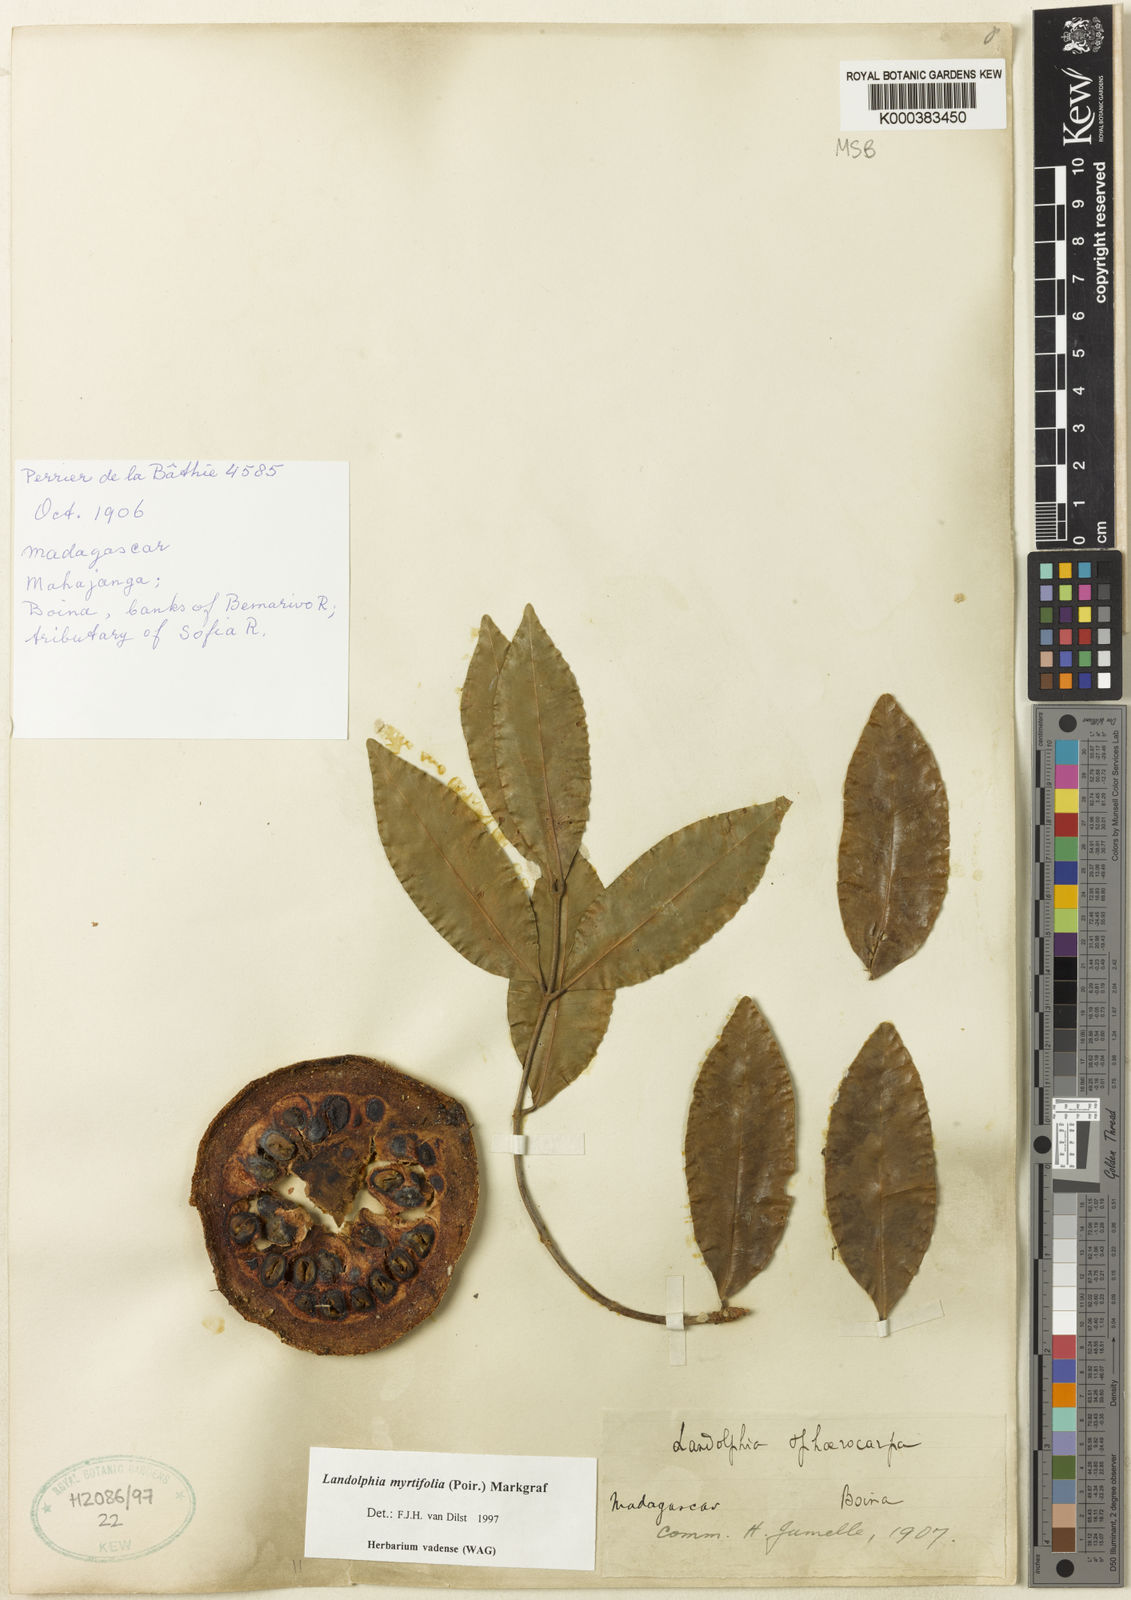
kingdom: Plantae
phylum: Tracheophyta
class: Magnoliopsida
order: Gentianales
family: Apocynaceae
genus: Landolphia
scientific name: Landolphia myrtifolia
